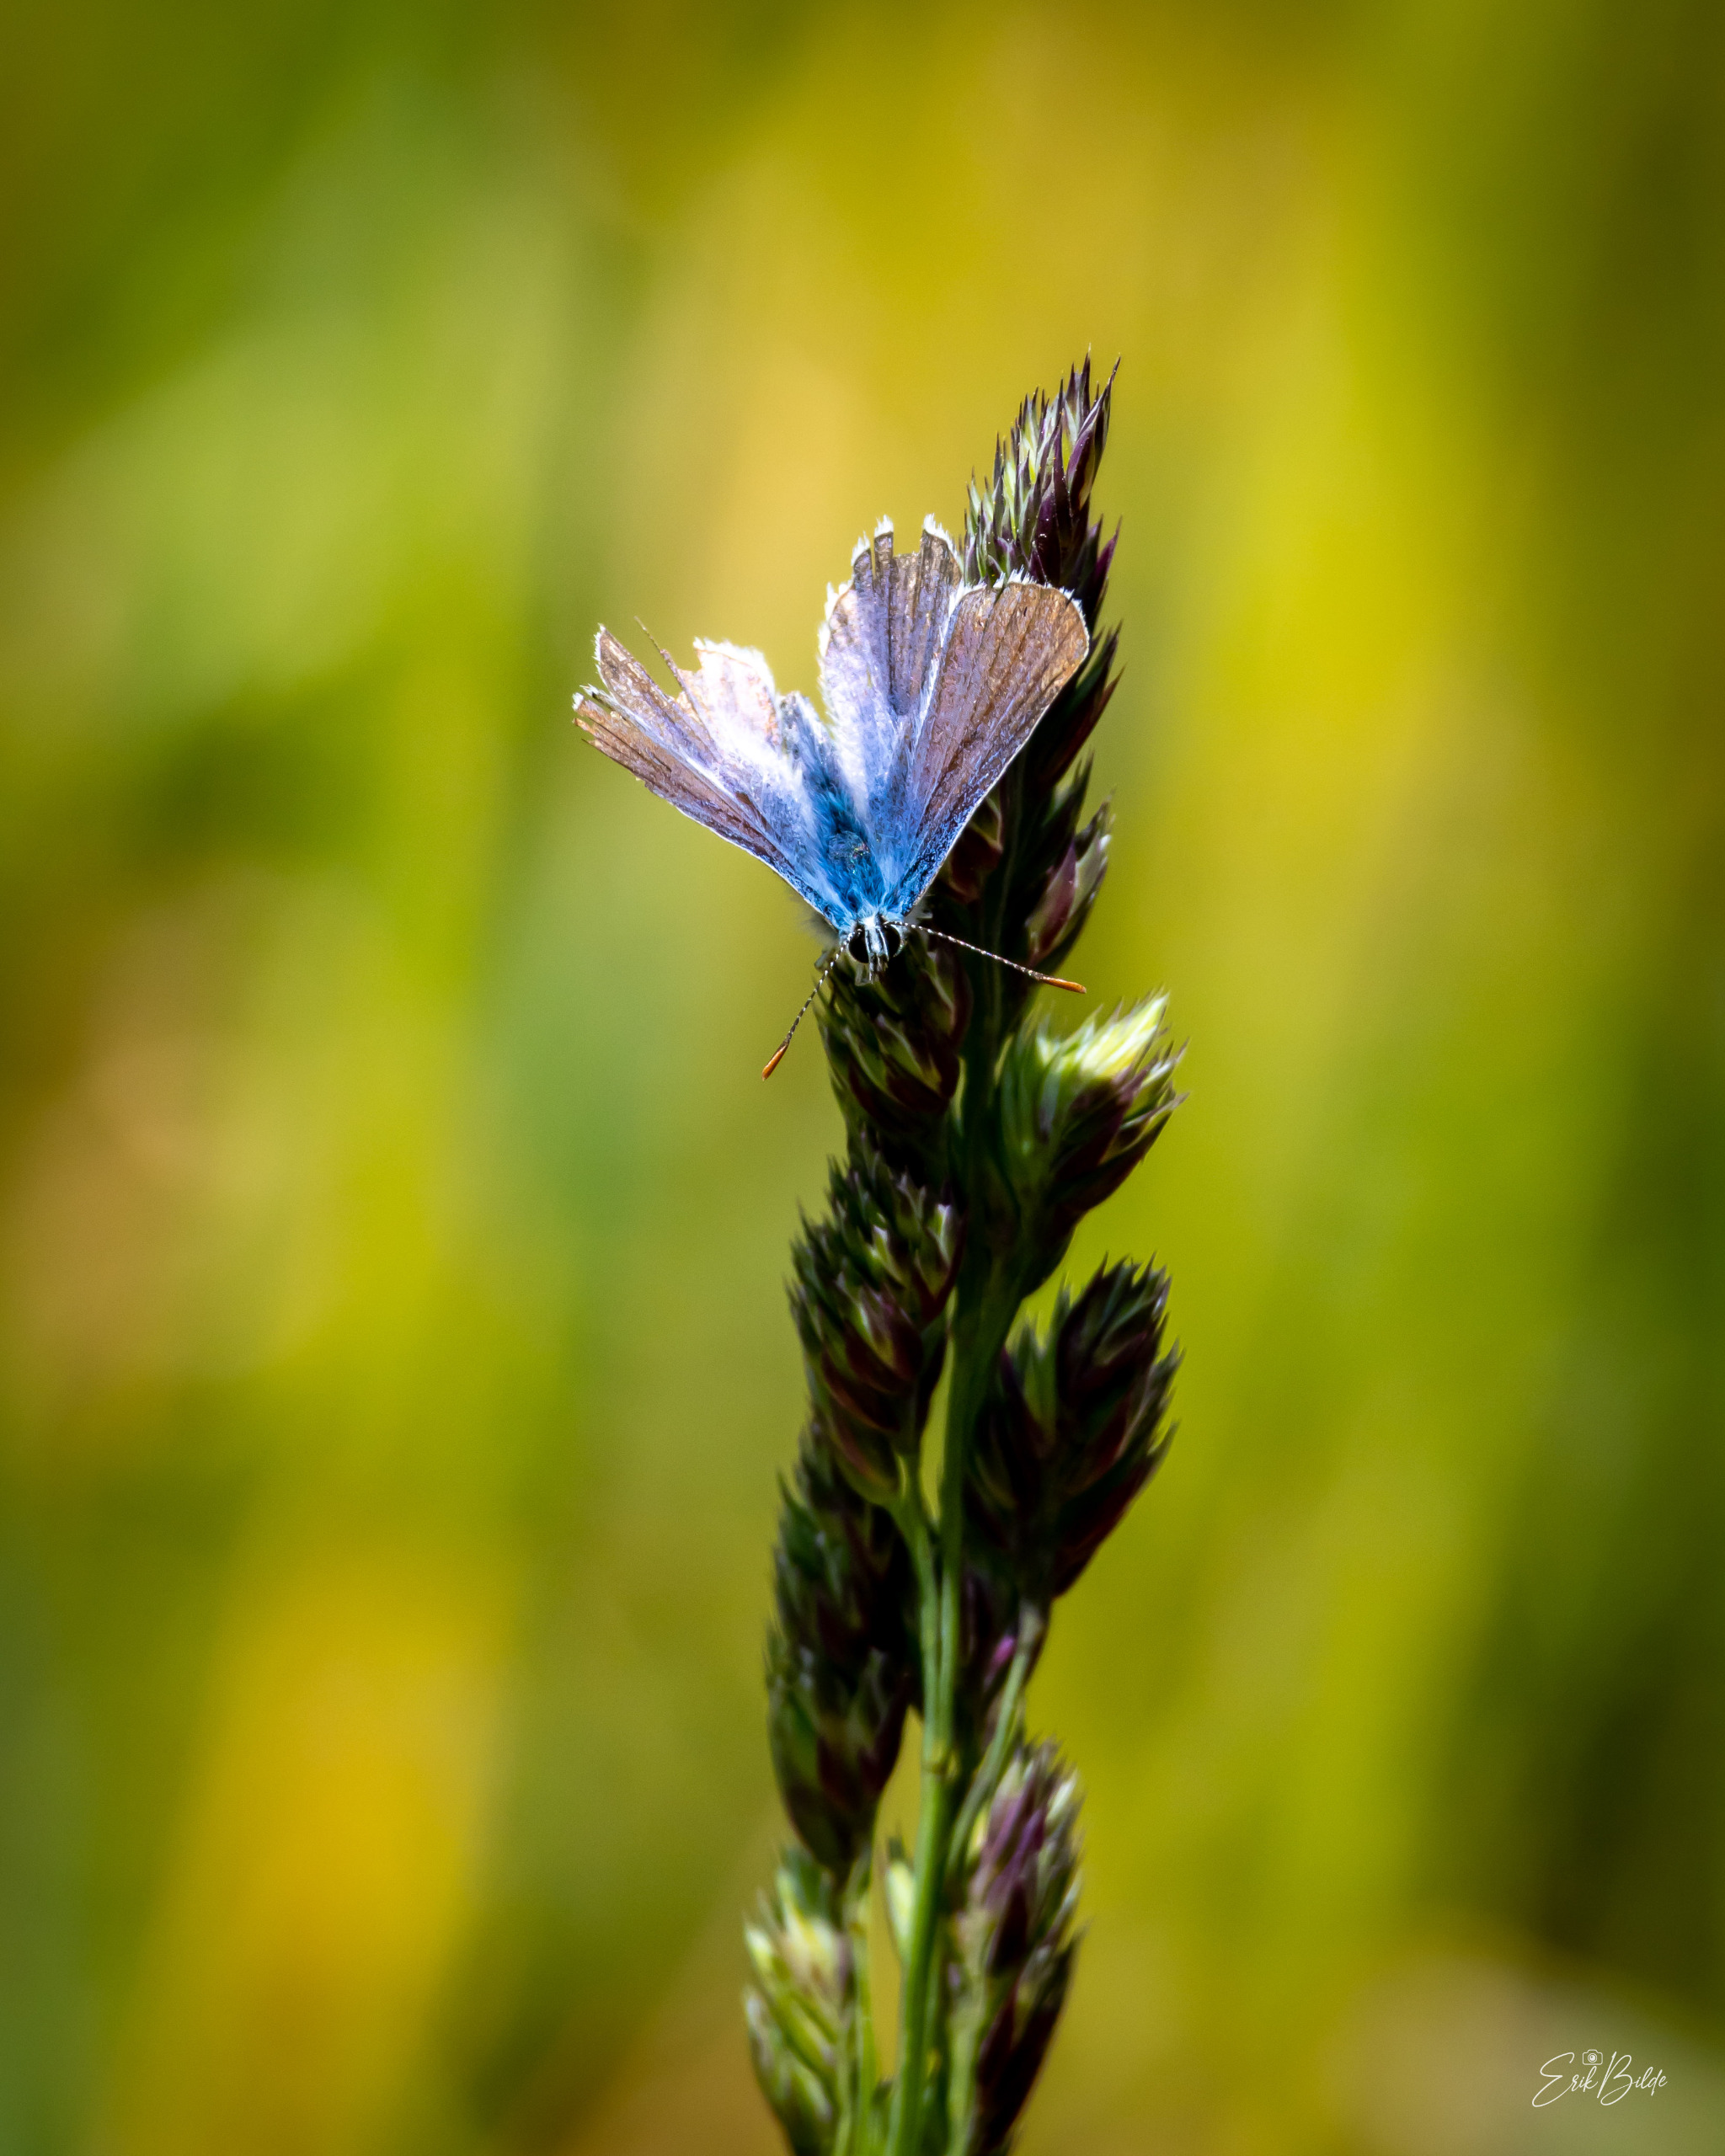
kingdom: Animalia
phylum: Arthropoda
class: Insecta
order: Lepidoptera
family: Lycaenidae
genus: Polyommatus
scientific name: Polyommatus icarus
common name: Almindelig blåfugl
